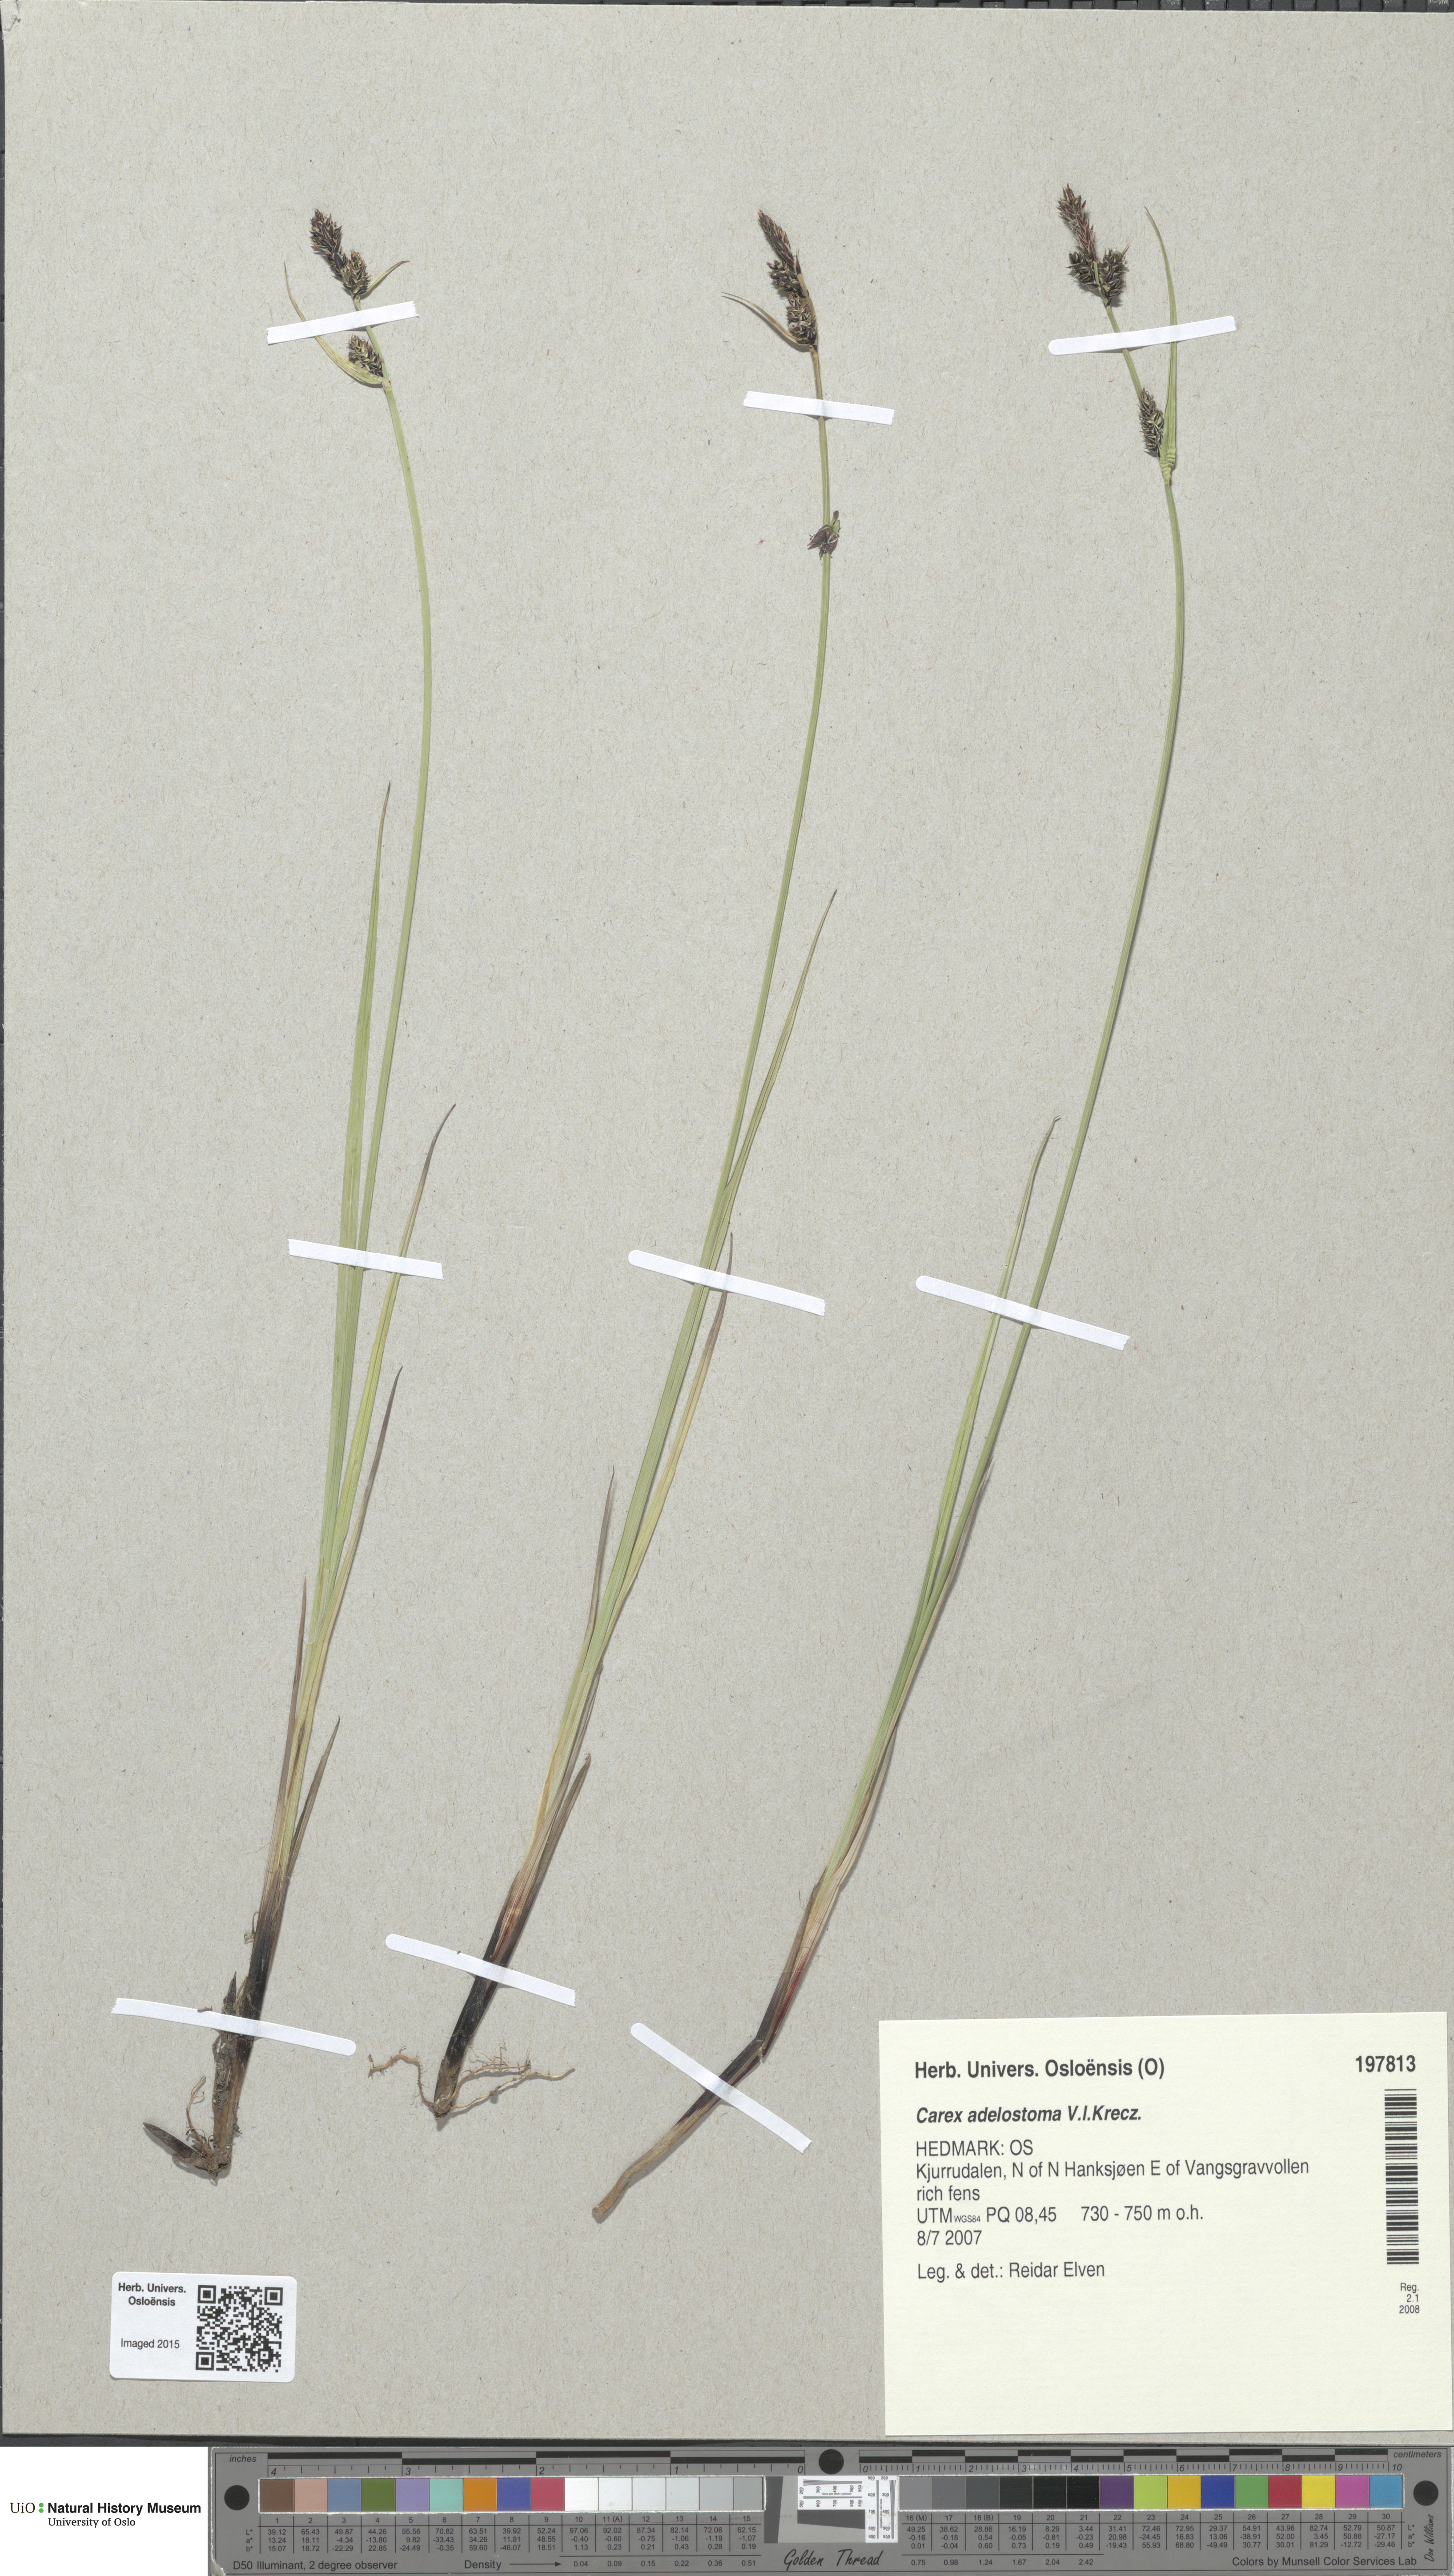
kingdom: Plantae
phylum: Tracheophyta
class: Liliopsida
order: Poales
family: Cyperaceae
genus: Carex
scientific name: Carex adelostoma
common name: Circumpolar sedge
